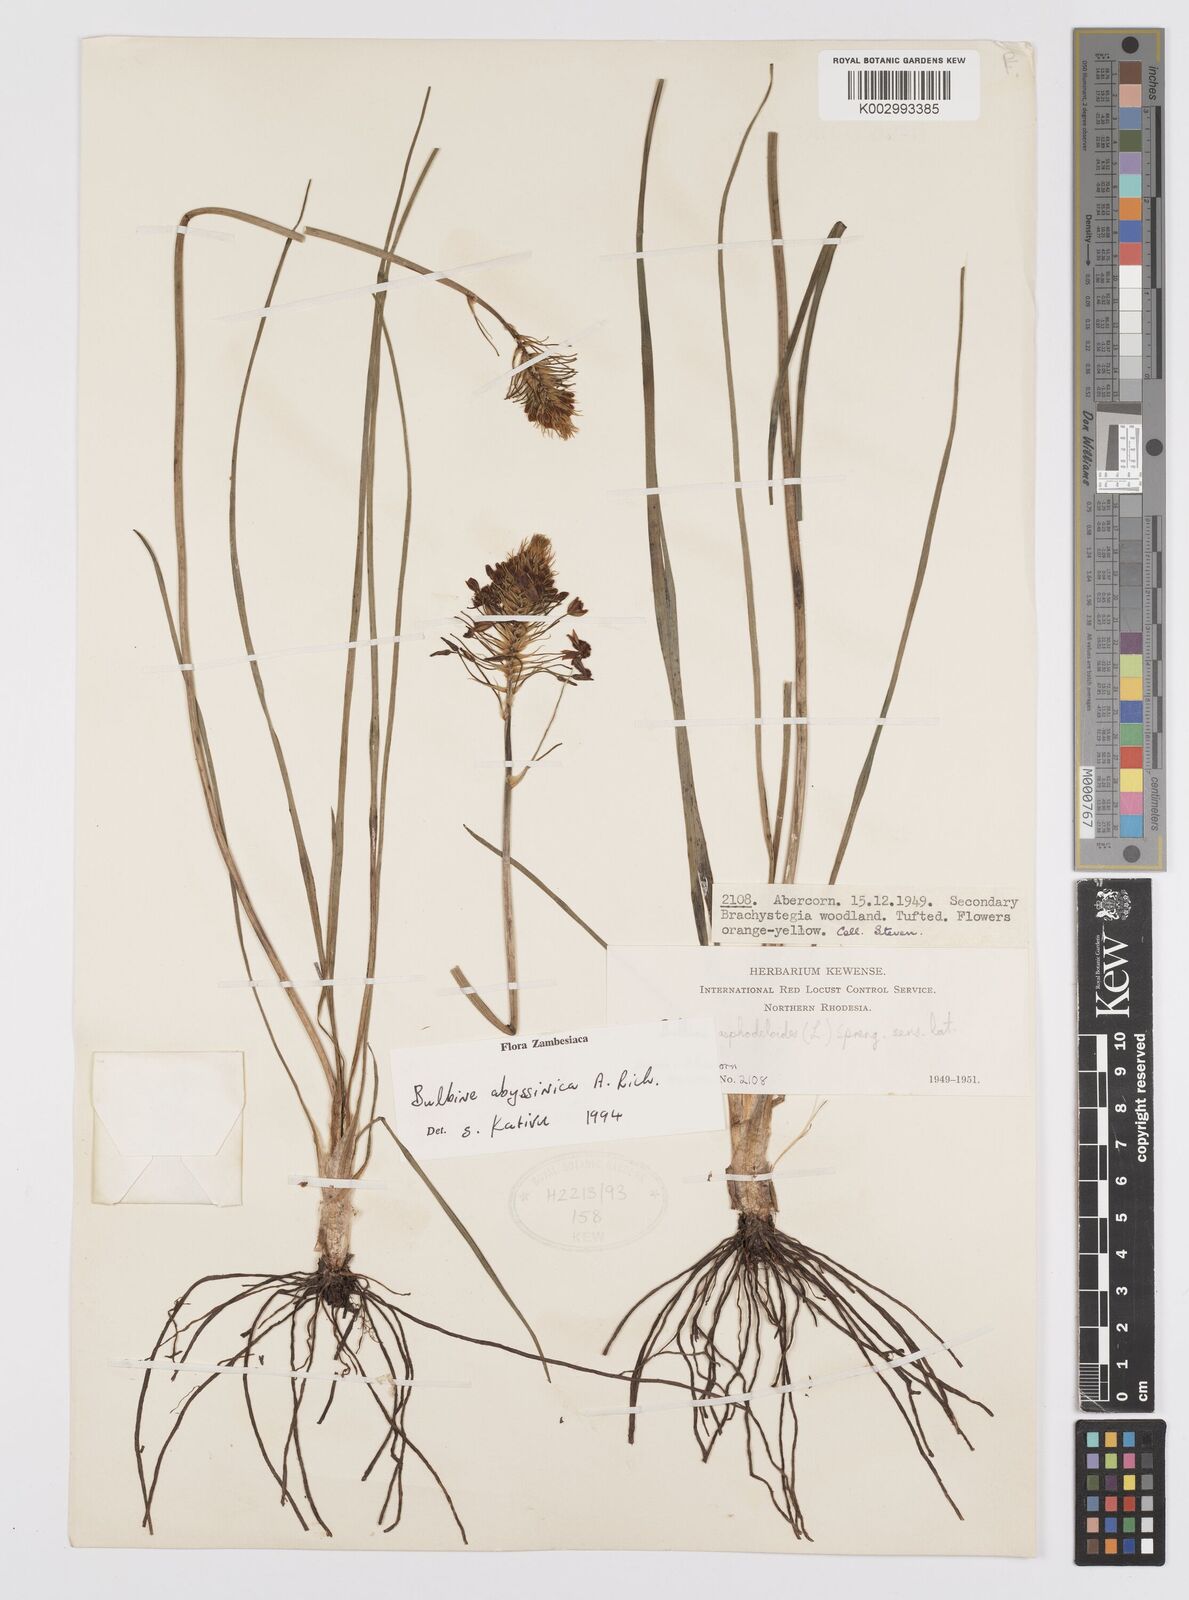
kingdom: Plantae
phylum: Tracheophyta
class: Liliopsida
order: Asparagales
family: Asphodelaceae
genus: Bulbine
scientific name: Bulbine abyssinica
